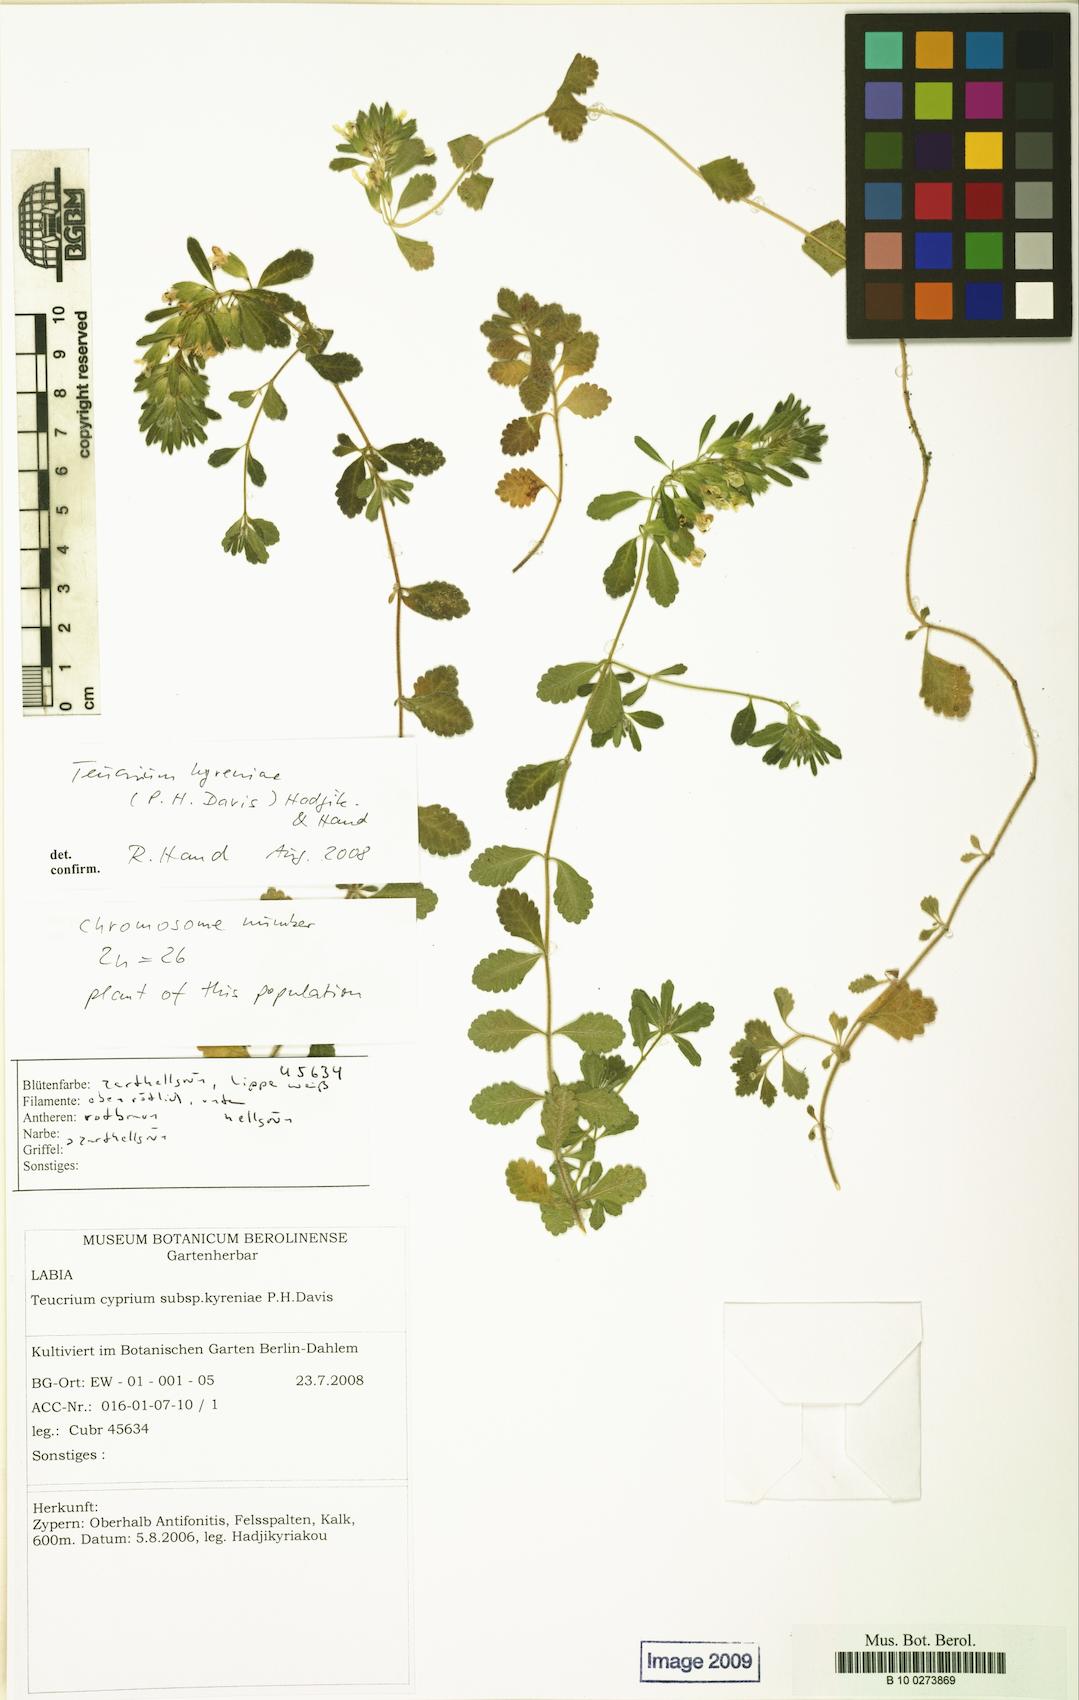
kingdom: Plantae
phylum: Tracheophyta
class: Magnoliopsida
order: Lamiales
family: Lamiaceae
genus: Teucrium
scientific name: Teucrium kyreniae
